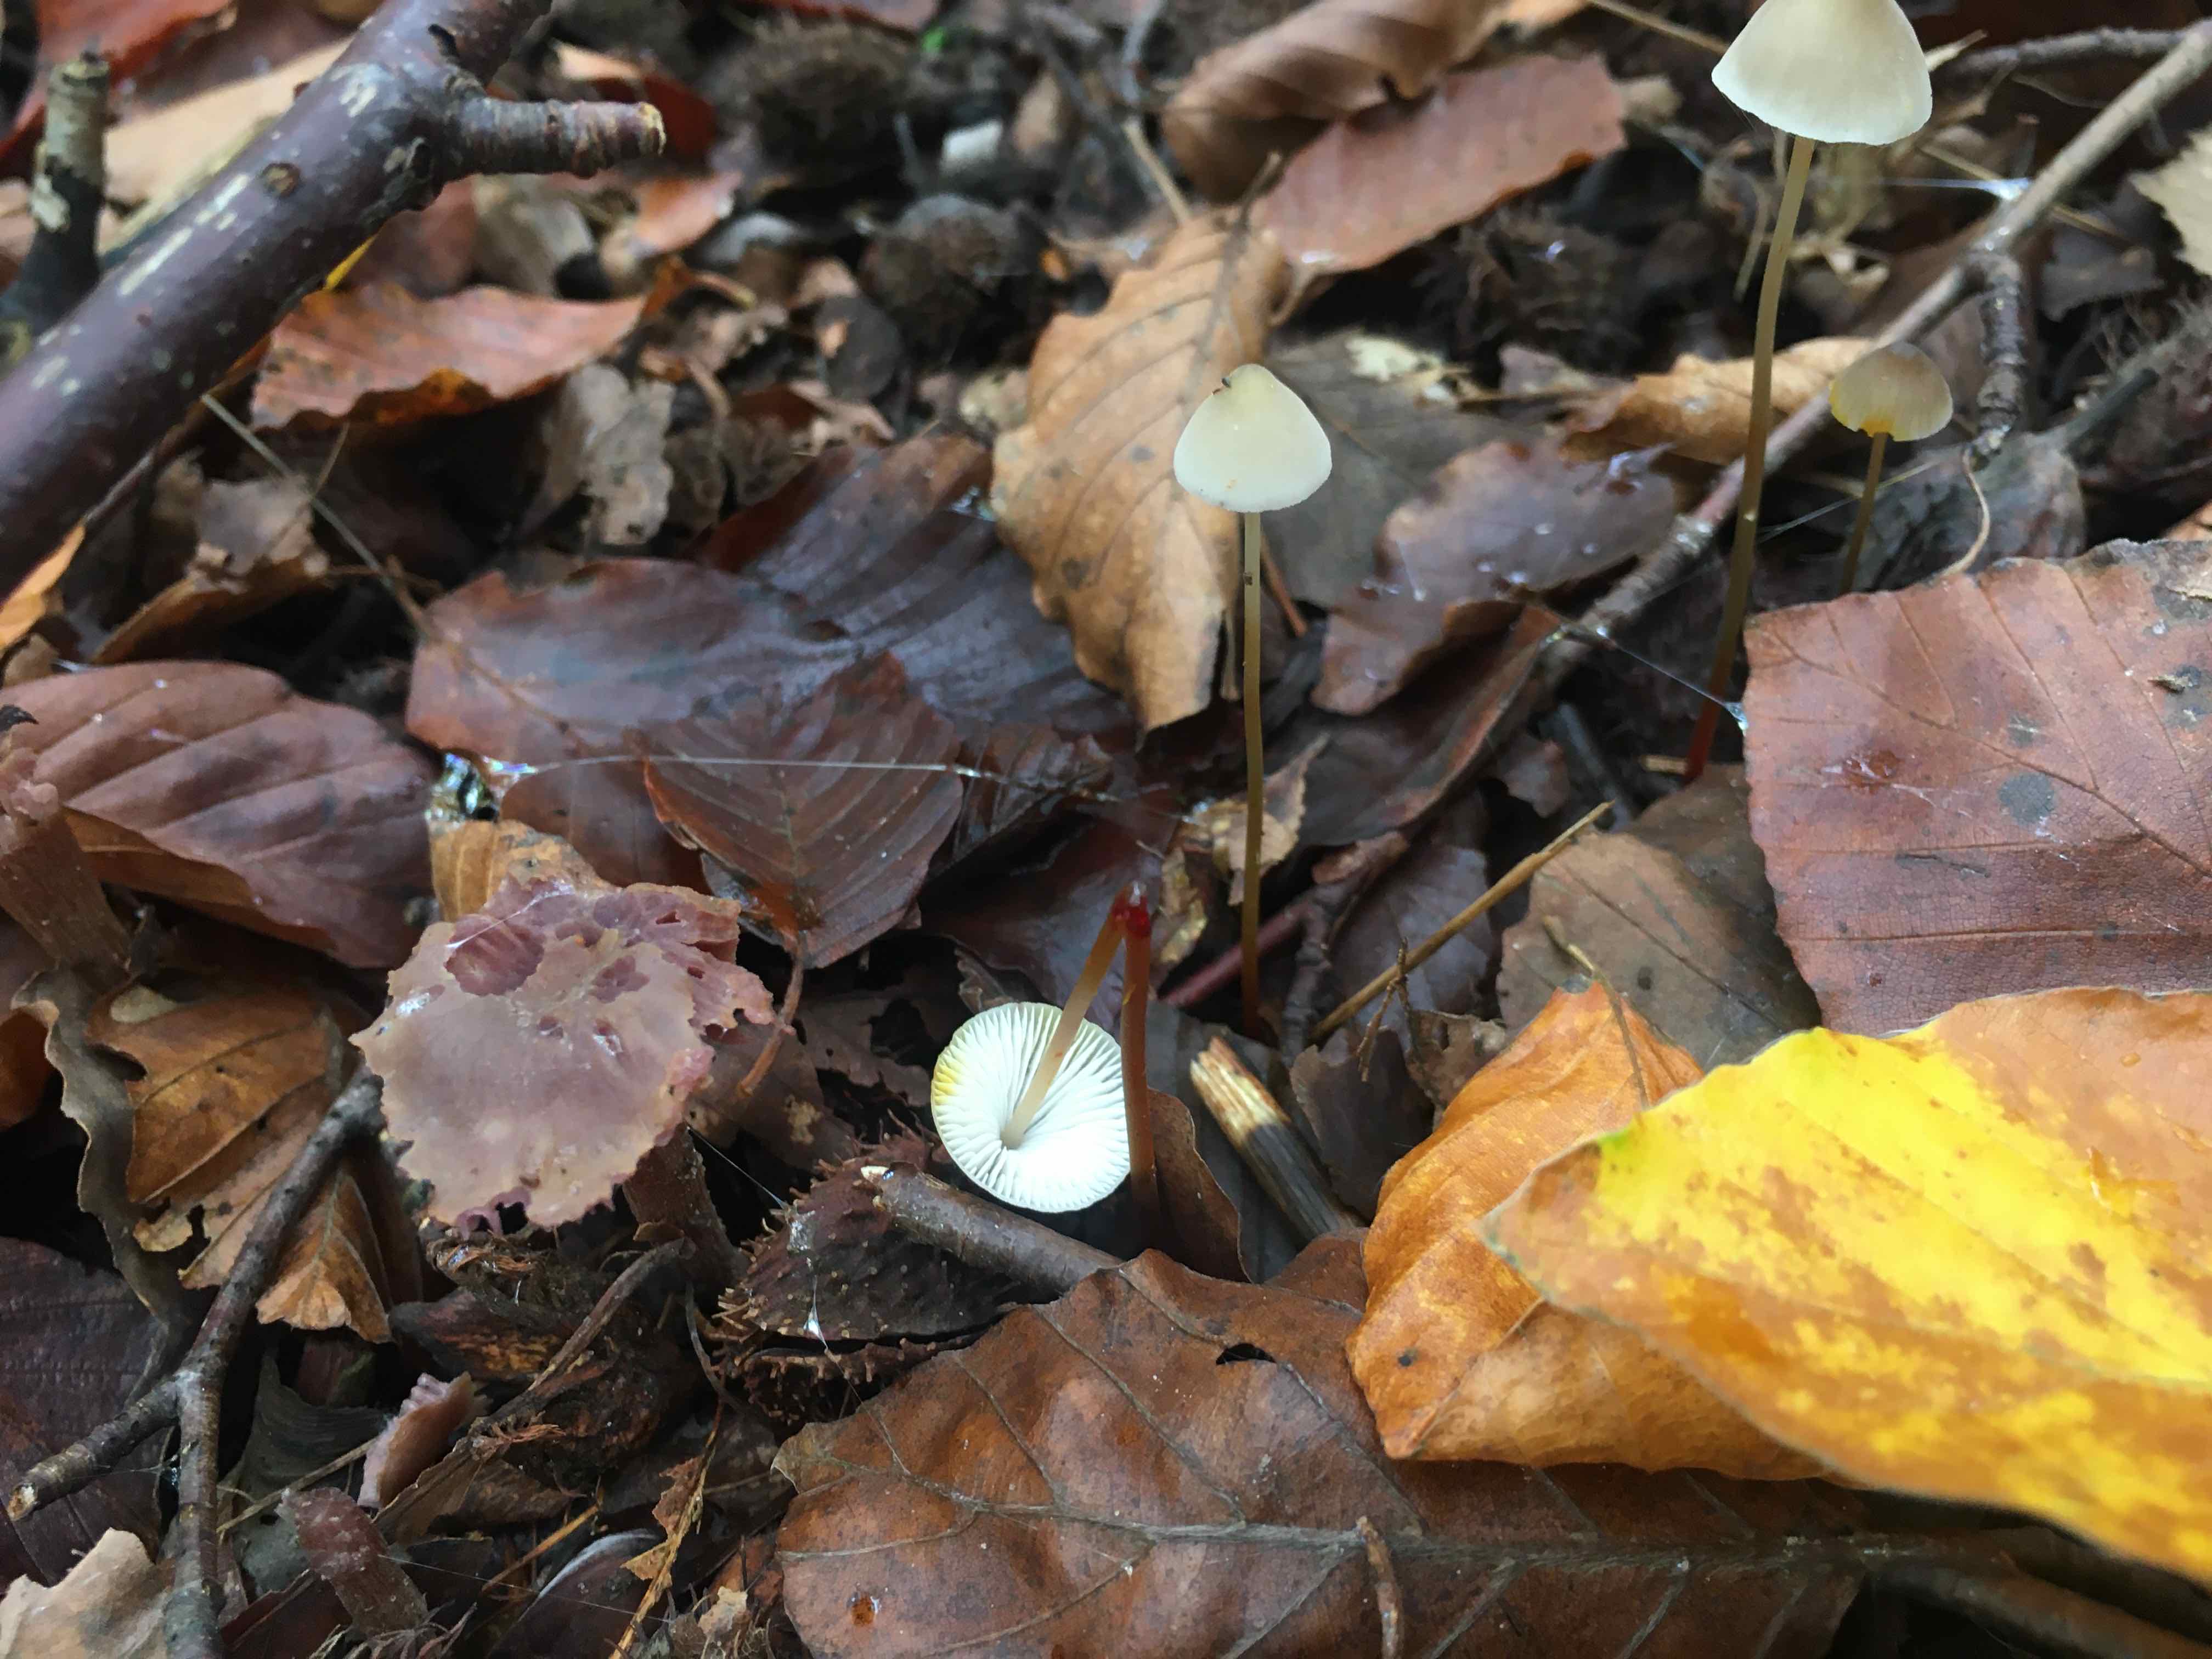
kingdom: Fungi
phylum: Basidiomycota
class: Agaricomycetes
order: Agaricales
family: Mycenaceae
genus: Mycena
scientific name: Mycena crocata
